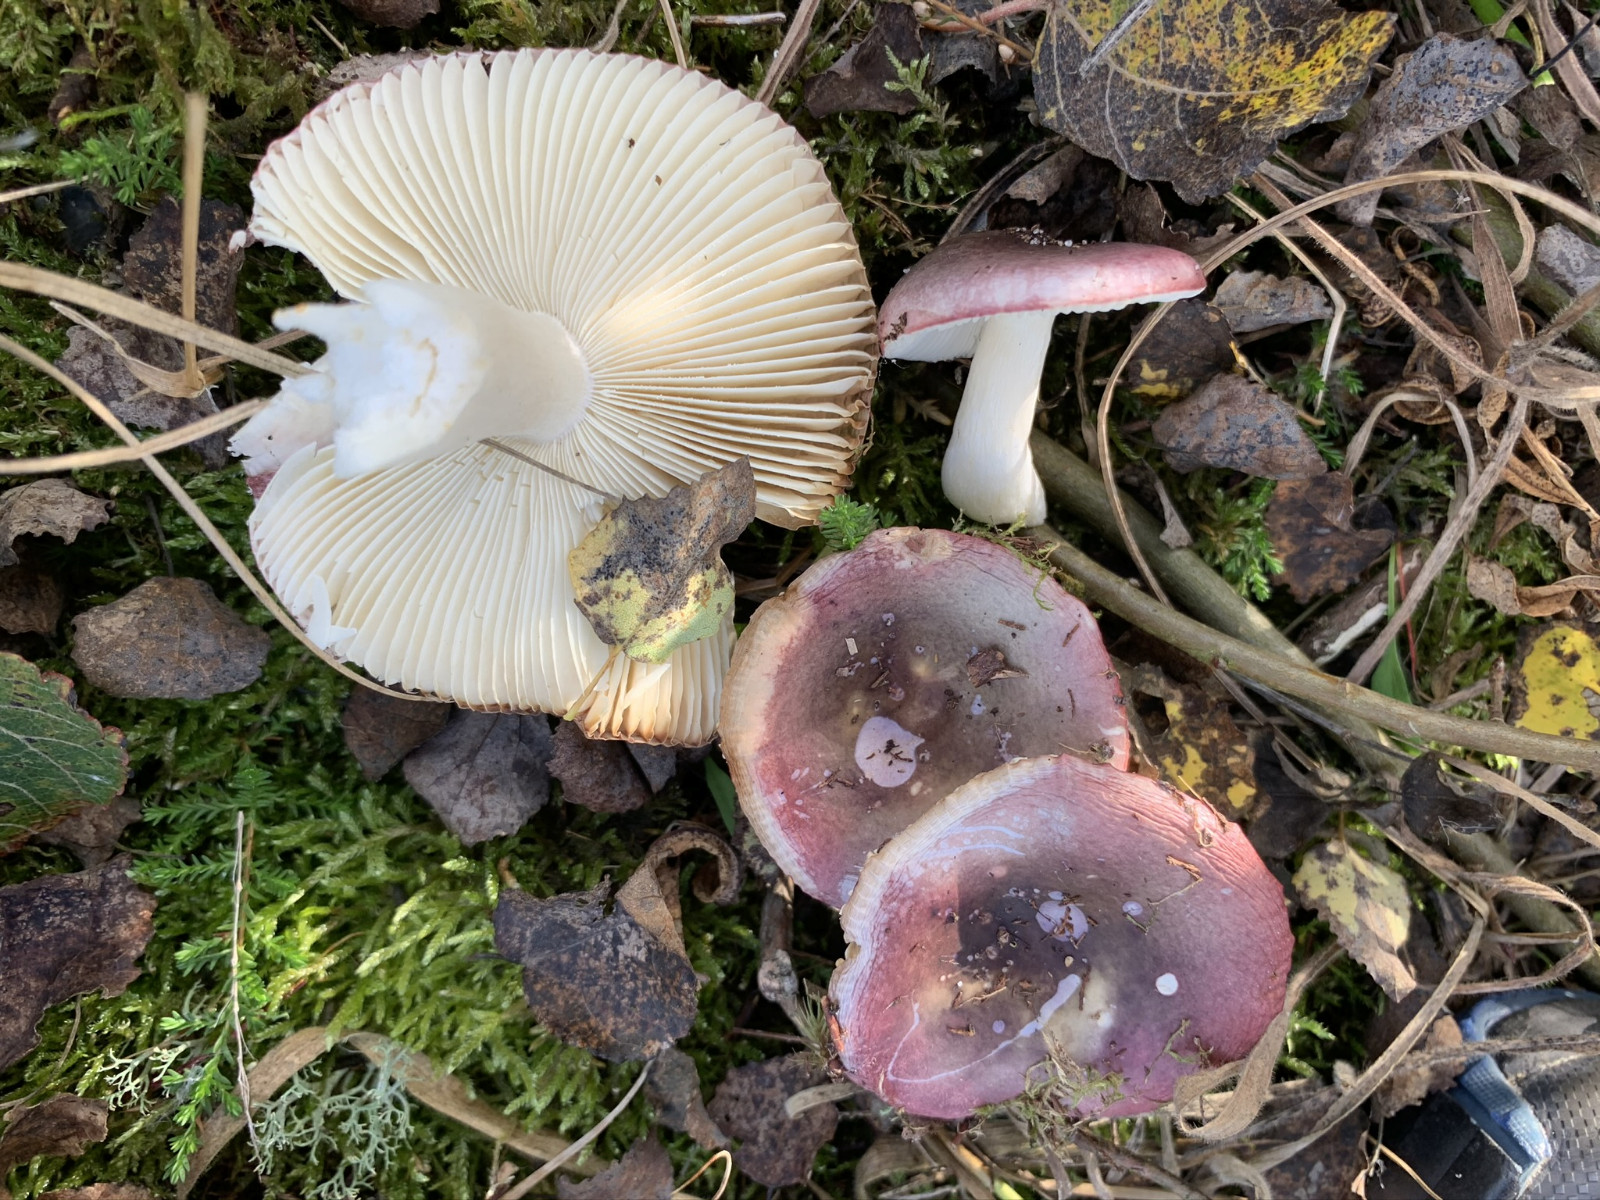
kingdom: Fungi
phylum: Basidiomycota
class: Agaricomycetes
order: Russulales
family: Russulaceae
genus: Russula
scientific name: Russula laccata
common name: klit-skørhat
